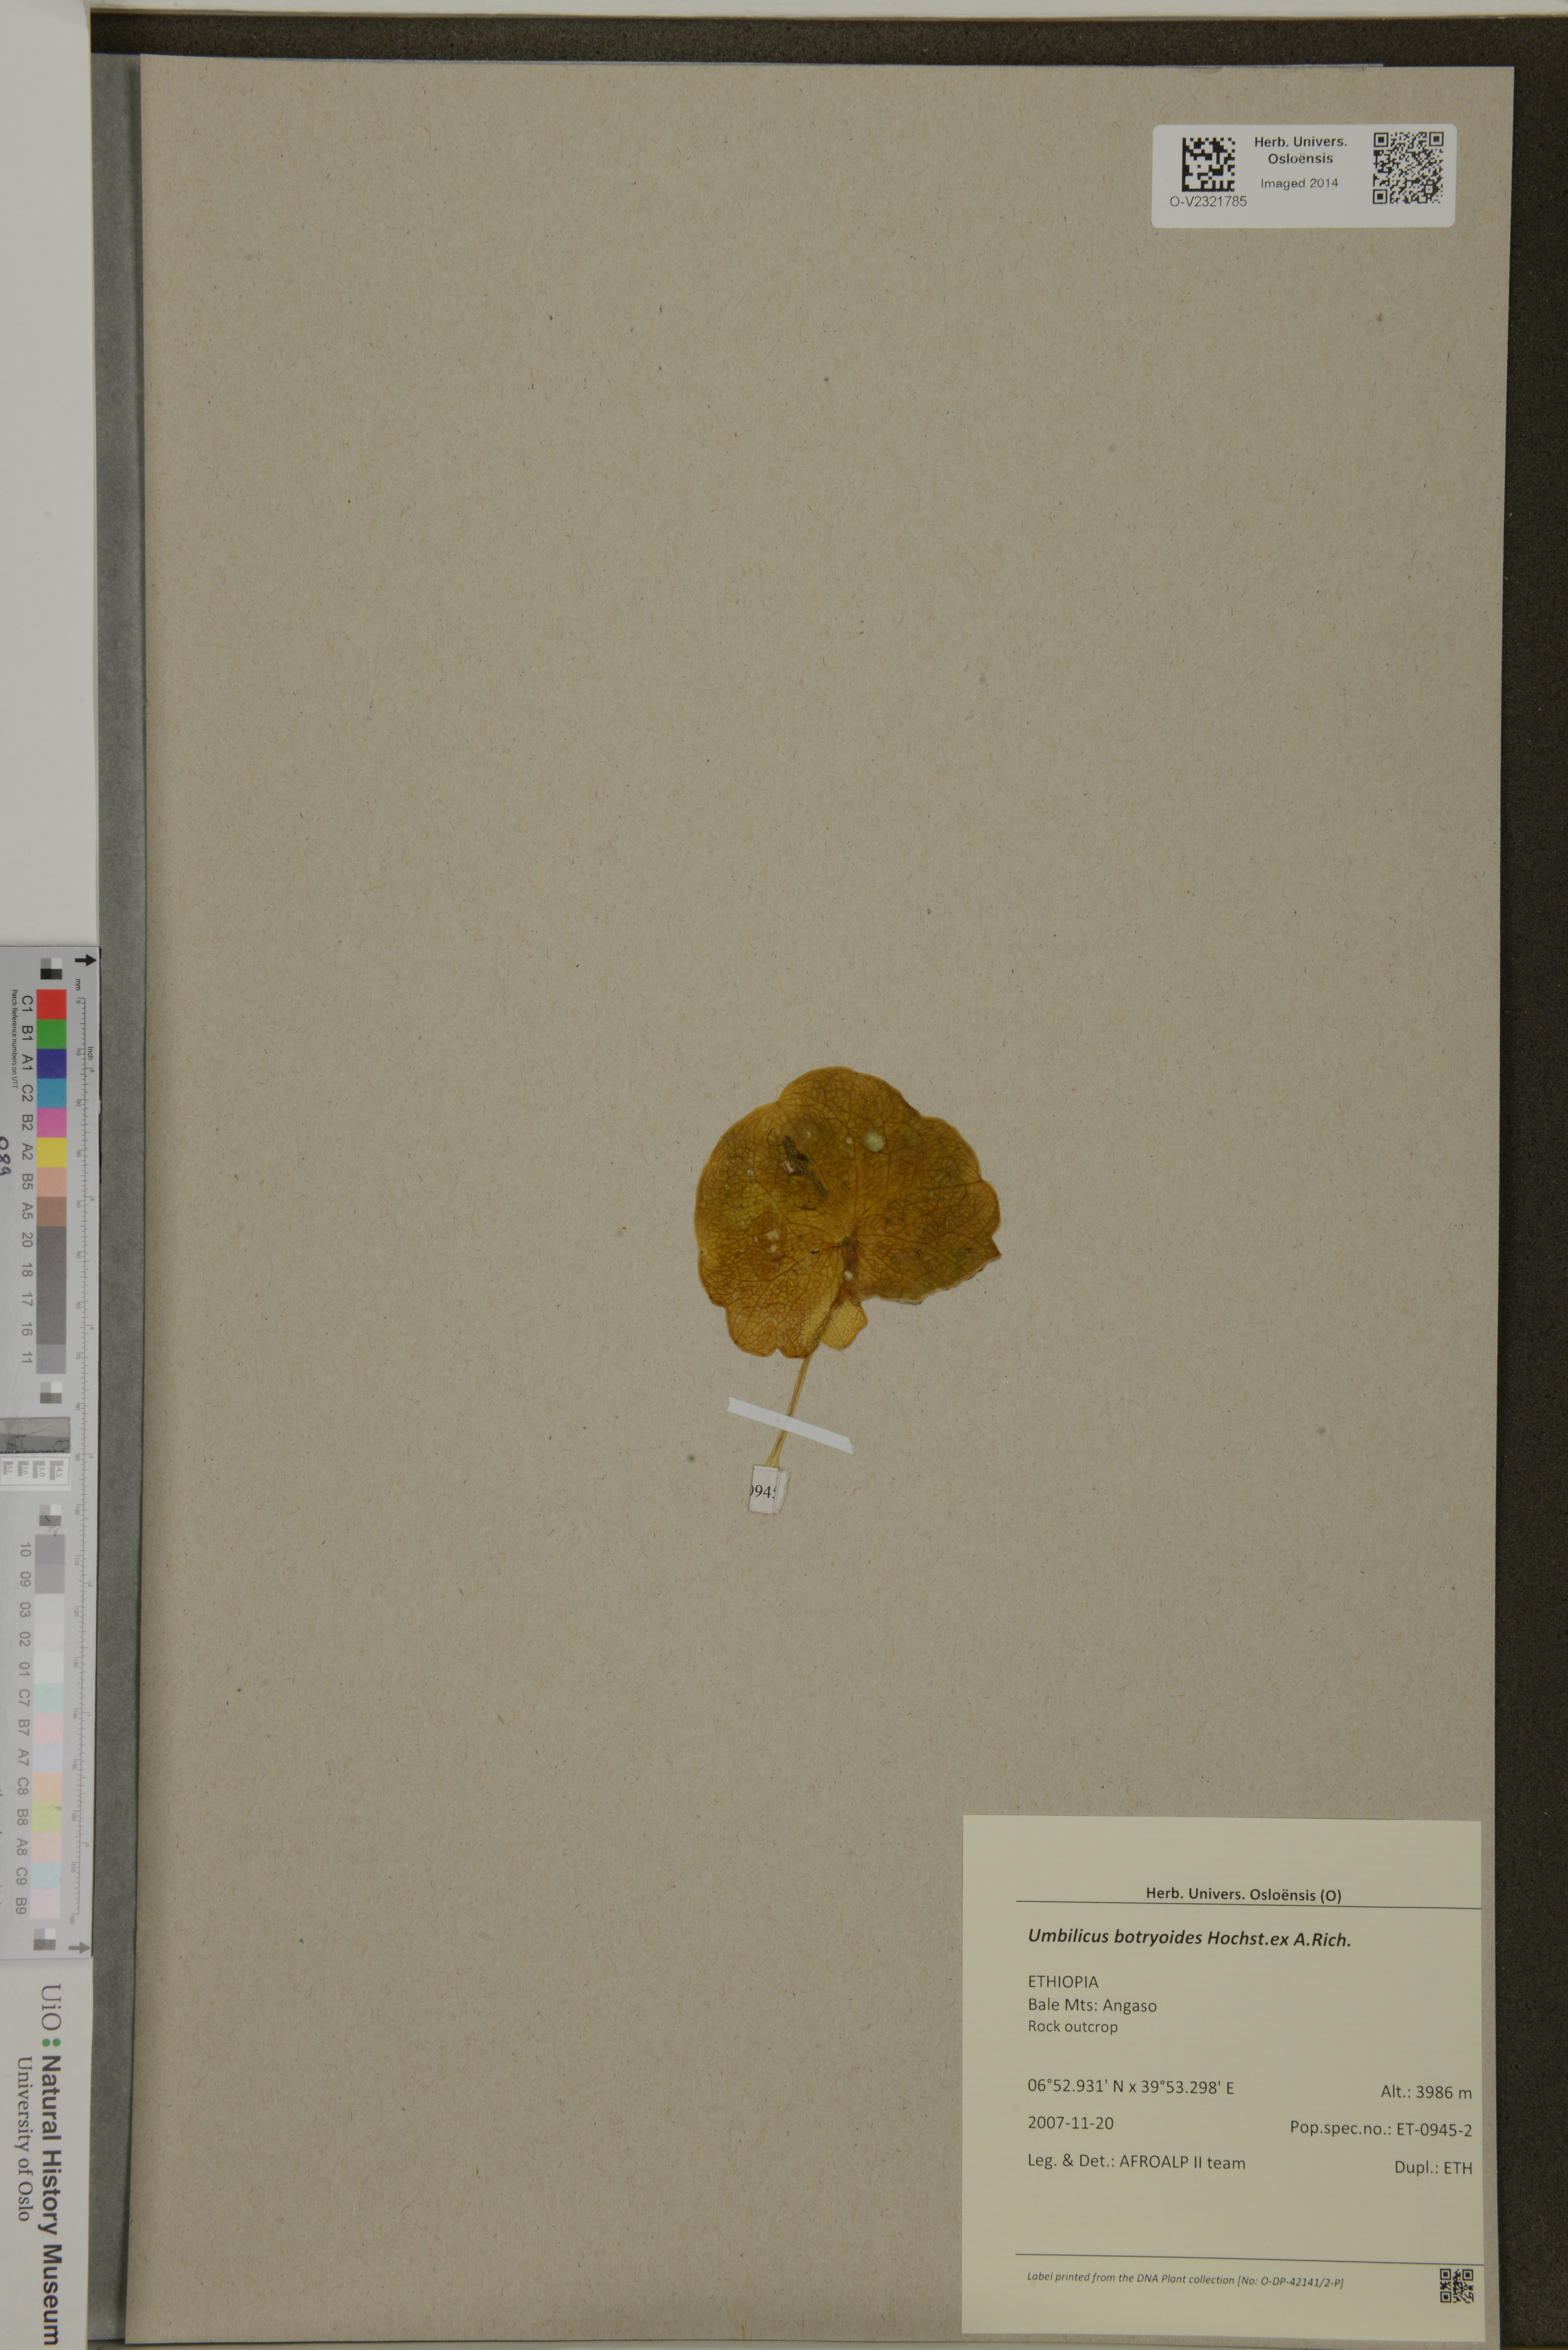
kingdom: Plantae
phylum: Tracheophyta
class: Magnoliopsida
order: Saxifragales
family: Crassulaceae
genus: Umbilicus
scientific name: Umbilicus botryoides
